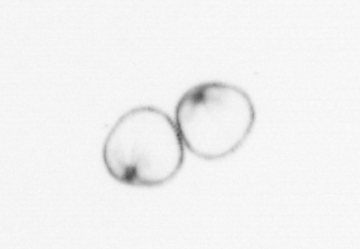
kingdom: Chromista
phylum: Myzozoa
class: Dinophyceae
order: Noctilucales
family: Noctilucaceae
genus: Noctiluca
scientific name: Noctiluca scintillans
